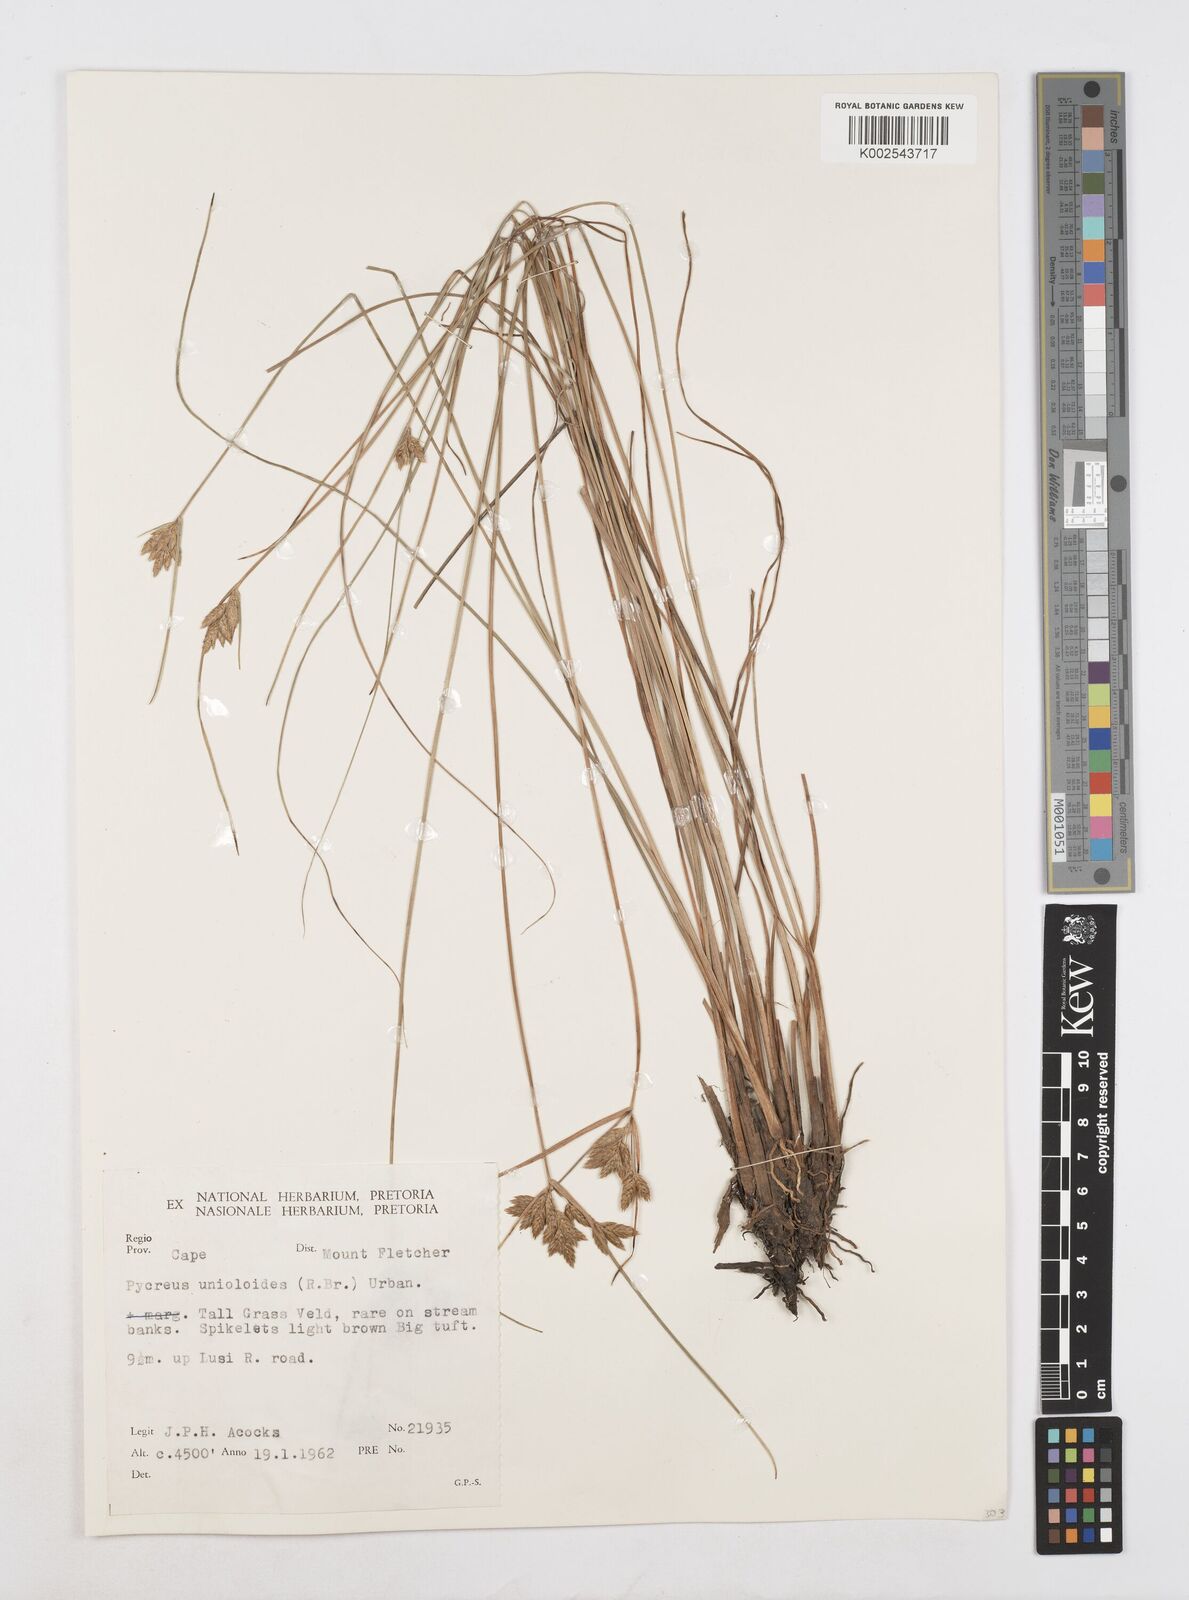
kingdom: Plantae
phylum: Tracheophyta
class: Liliopsida
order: Poales
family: Cyperaceae
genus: Cyperus
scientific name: Cyperus unioloides
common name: Uniola flatsedge
